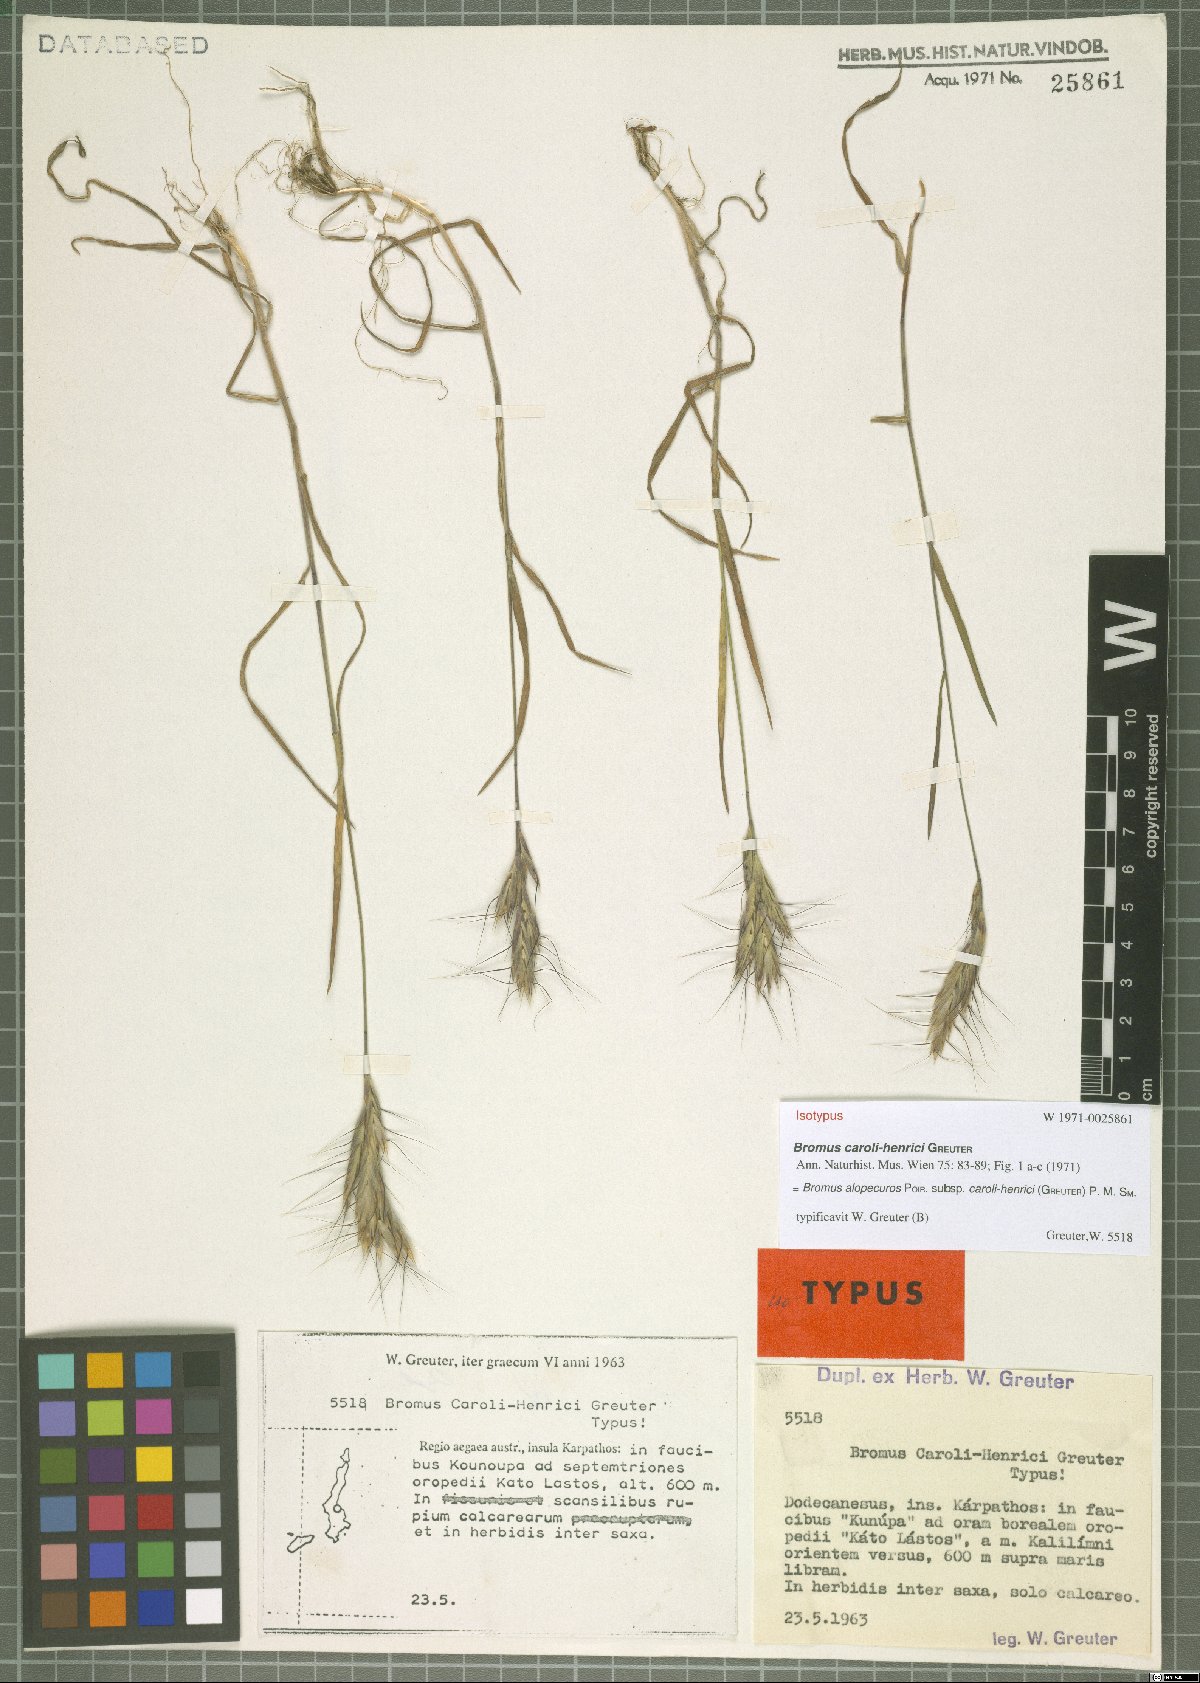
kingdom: Plantae
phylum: Tracheophyta
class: Liliopsida
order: Poales
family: Poaceae
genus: Bromus
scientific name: Bromus alopecuros
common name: Weedy brome
